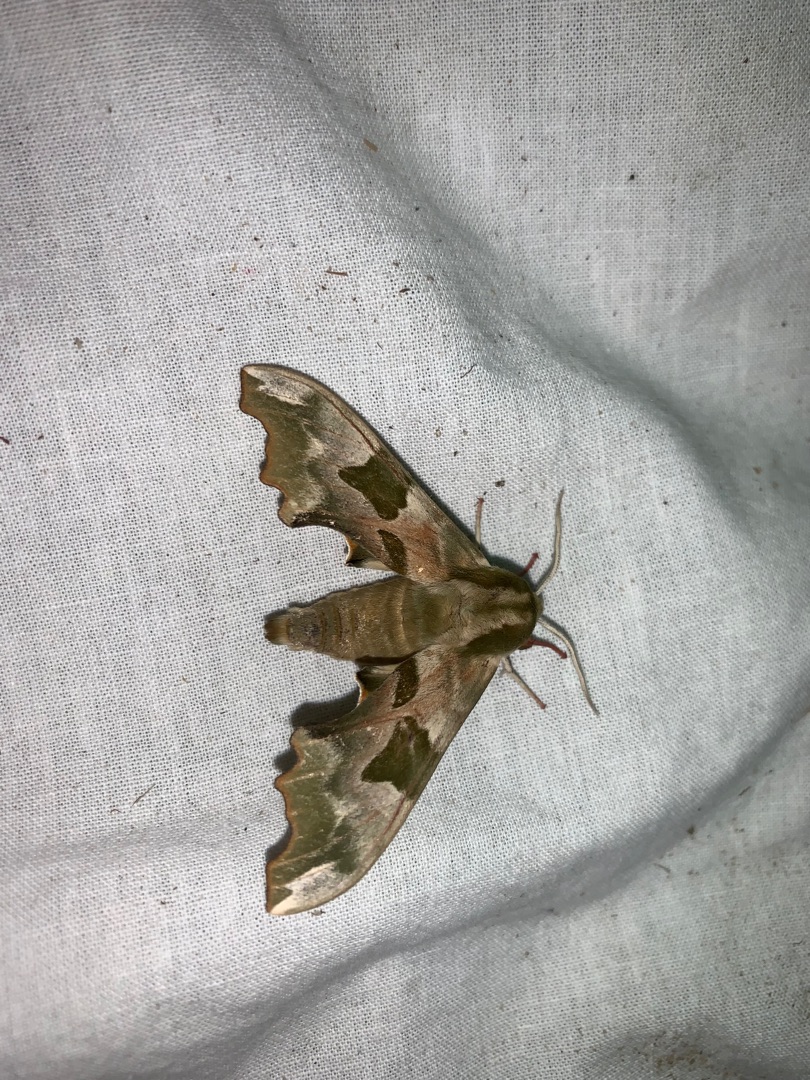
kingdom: Animalia
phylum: Arthropoda
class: Insecta
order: Lepidoptera
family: Sphingidae
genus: Mimas
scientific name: Mimas tiliae
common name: Lindesværmer
